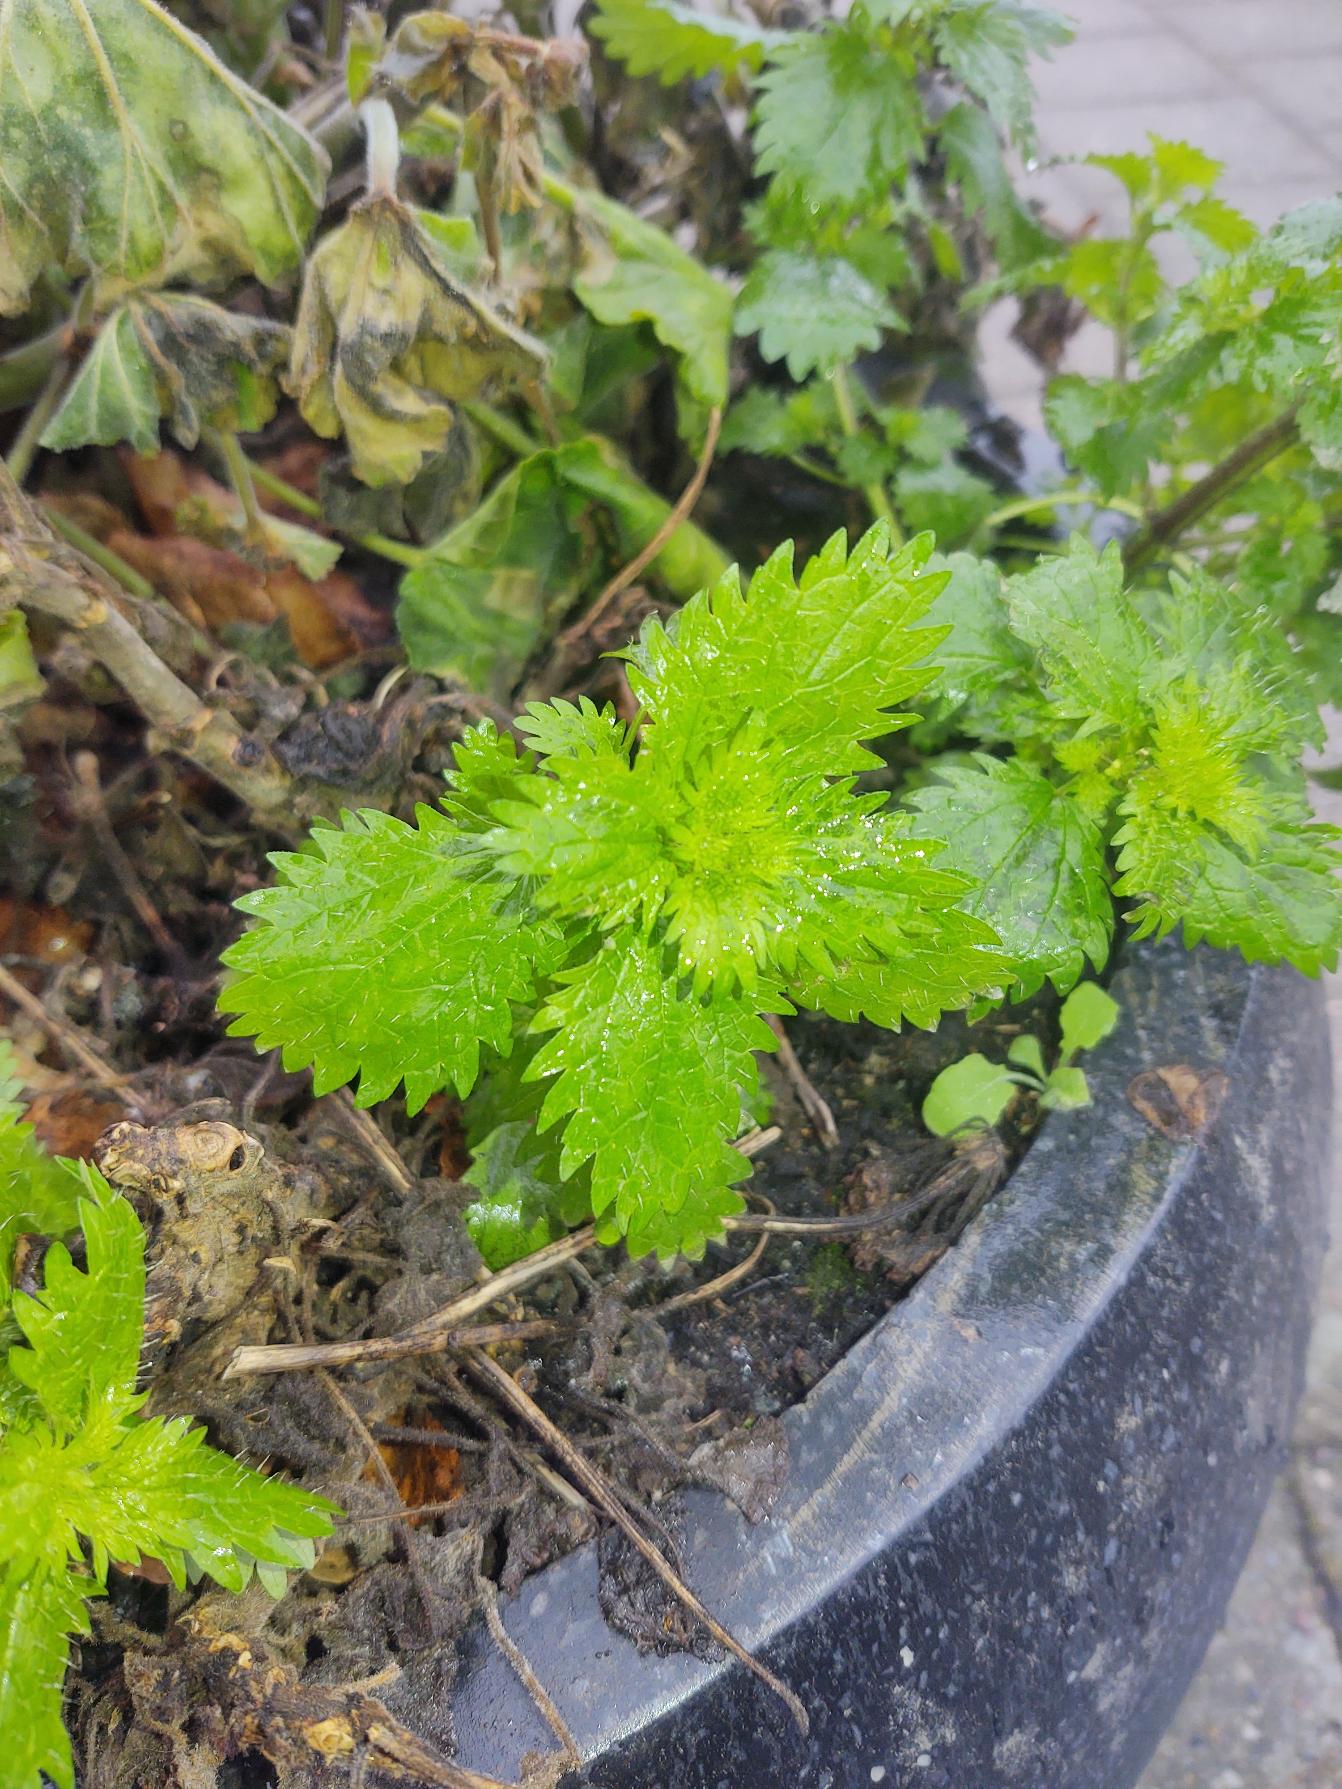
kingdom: Plantae
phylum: Tracheophyta
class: Magnoliopsida
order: Rosales
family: Urticaceae
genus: Urtica
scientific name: Urtica urens
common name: Liden nælde
